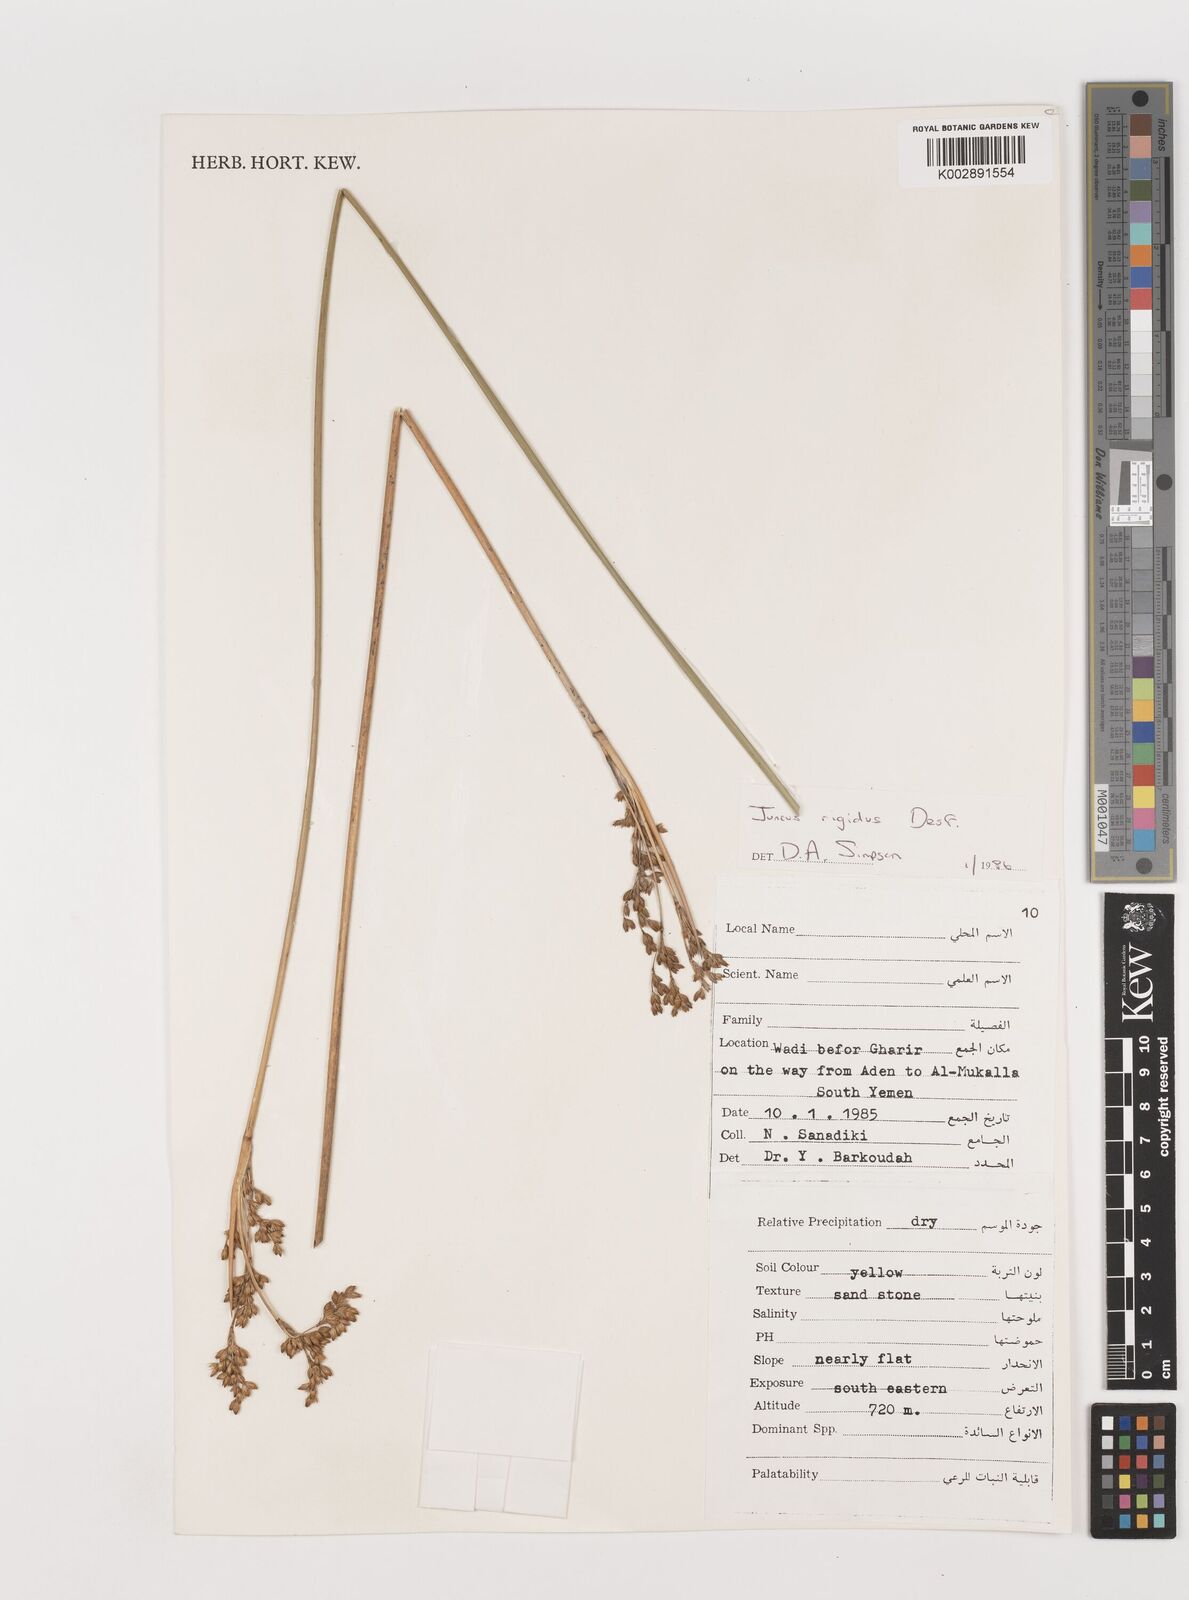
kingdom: Plantae
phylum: Tracheophyta
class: Liliopsida
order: Poales
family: Juncaceae
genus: Juncus
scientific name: Juncus rigidus
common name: Hard sea rush
